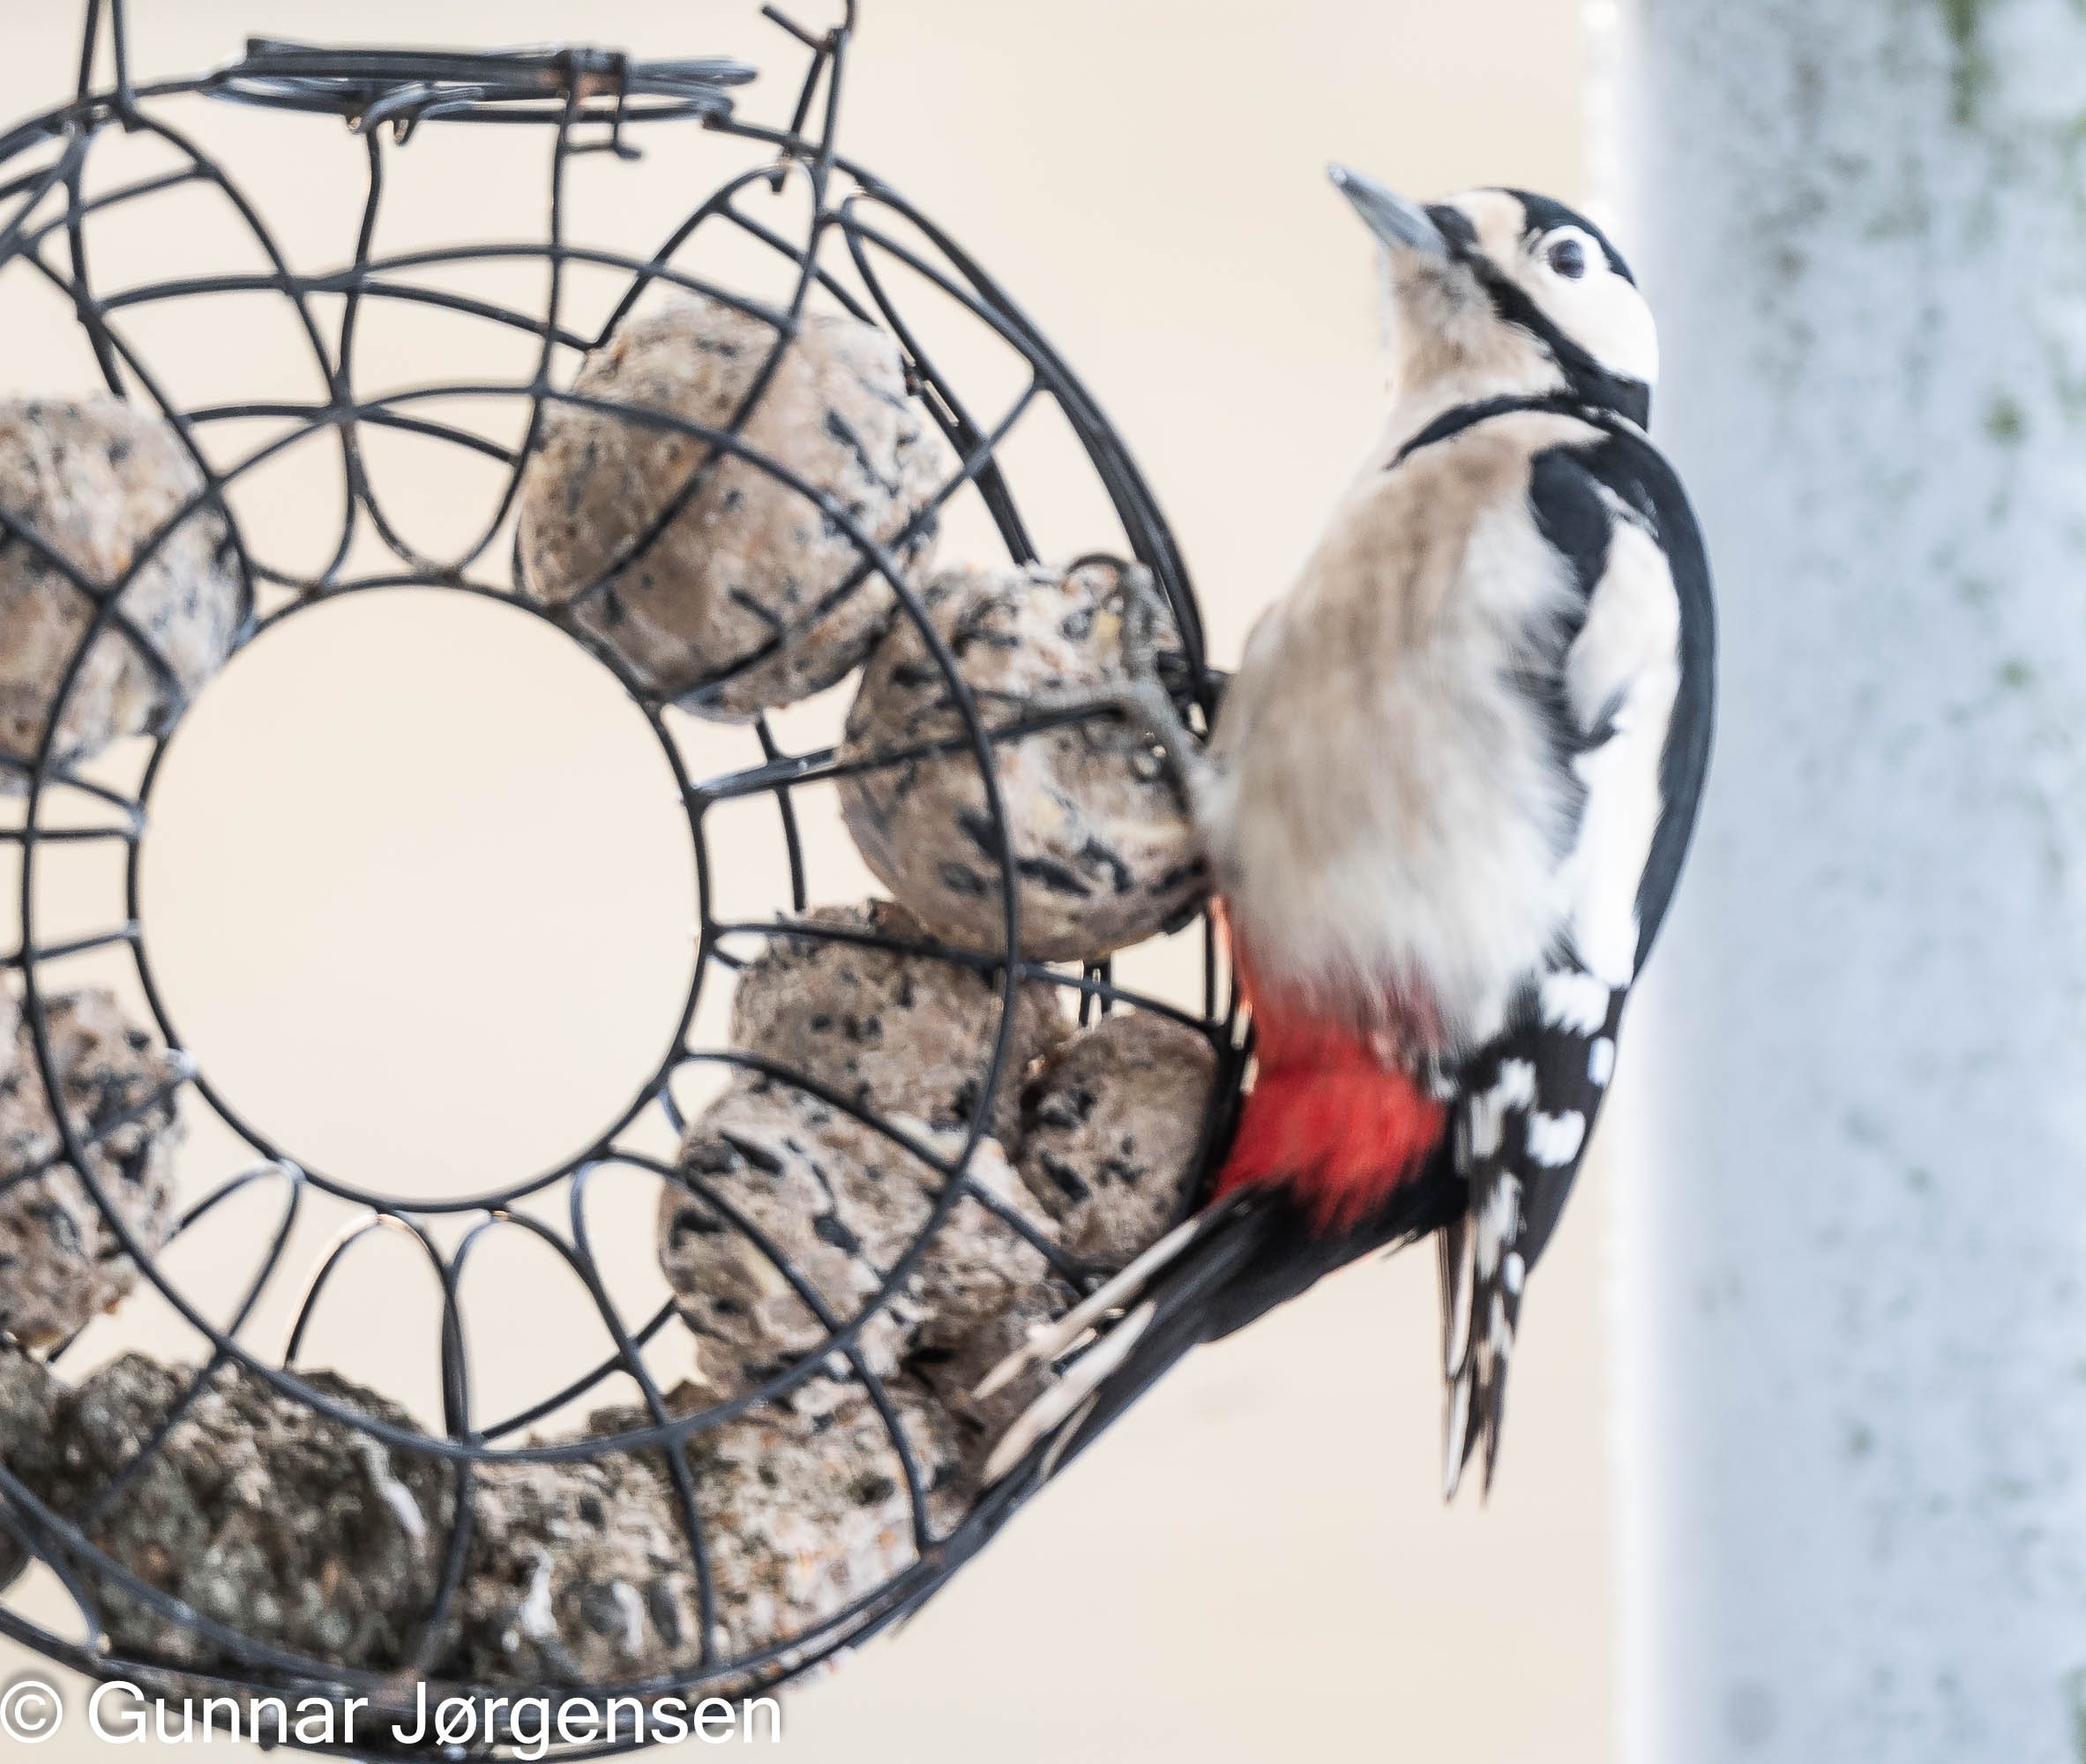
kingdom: Animalia
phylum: Chordata
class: Aves
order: Piciformes
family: Picidae
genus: Dendrocopos
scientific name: Dendrocopos major
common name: Stor flagspætte
